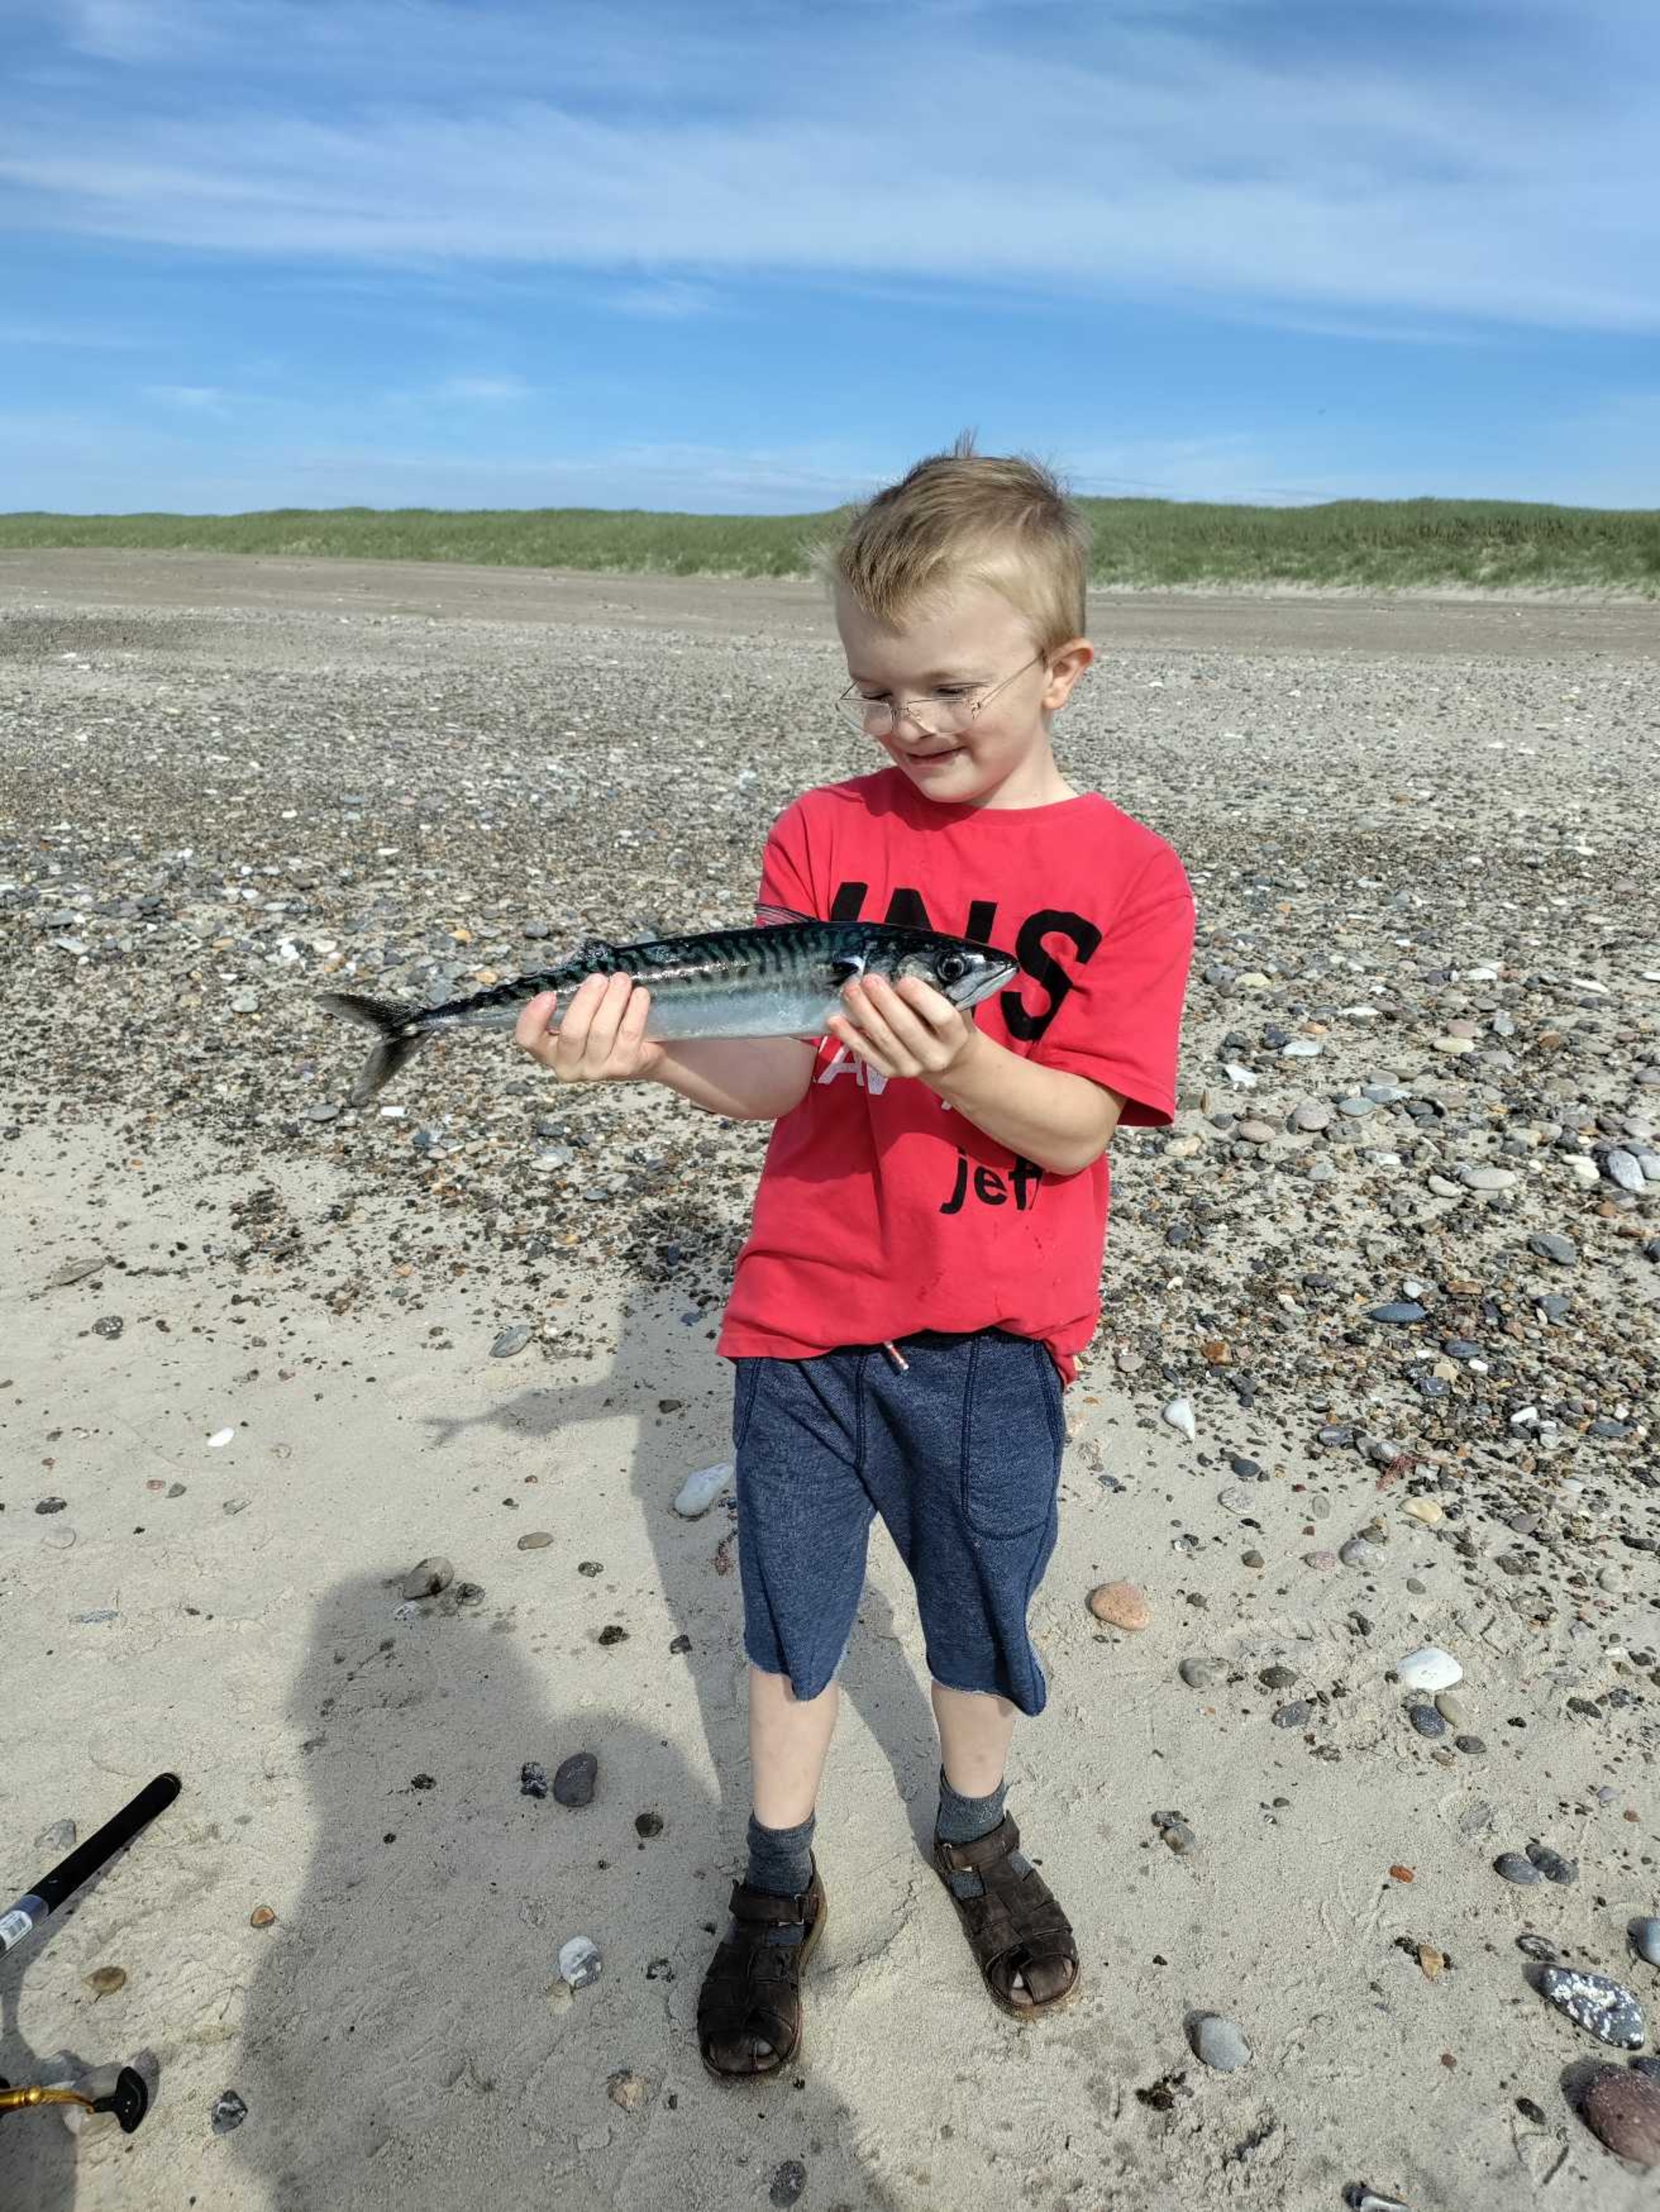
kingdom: Animalia
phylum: Chordata
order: Perciformes
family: Scombridae
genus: Scomber
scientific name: Scomber scombrus
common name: Makrel
